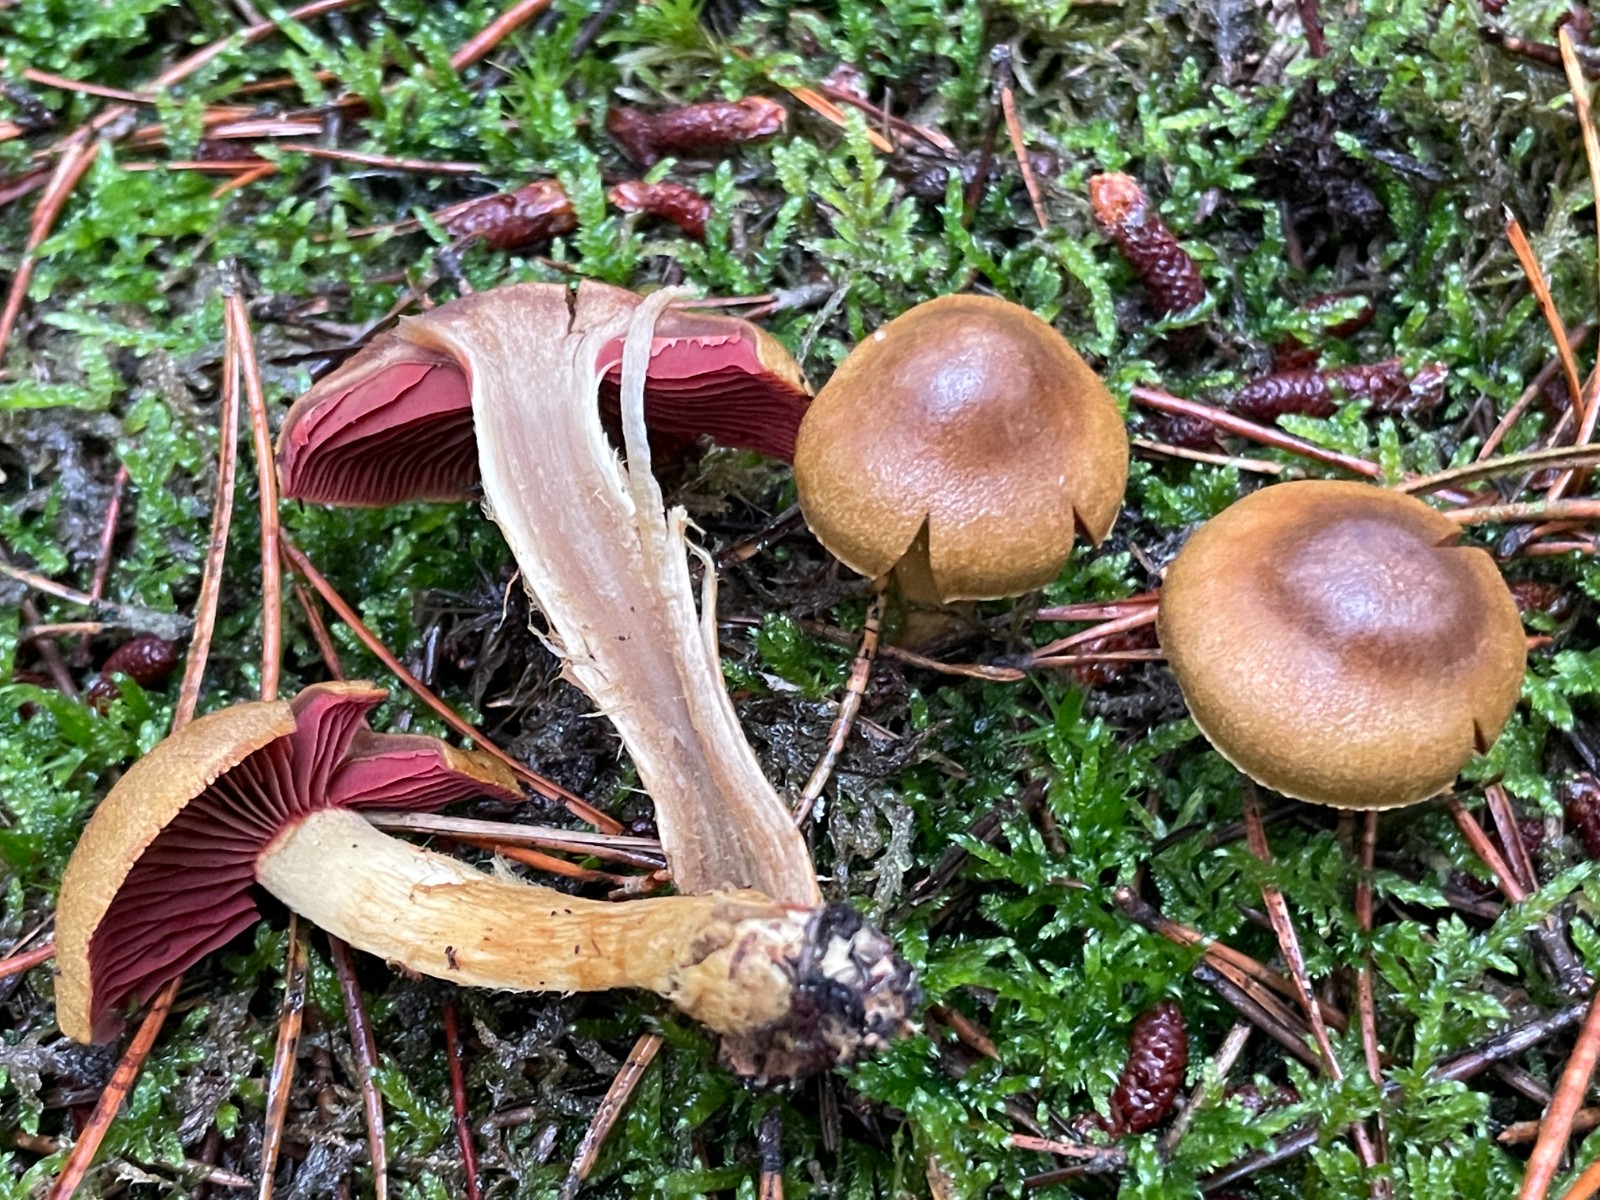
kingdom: Fungi
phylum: Basidiomycota
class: Agaricomycetes
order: Agaricales
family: Cortinariaceae
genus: Cortinarius
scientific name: Cortinarius
